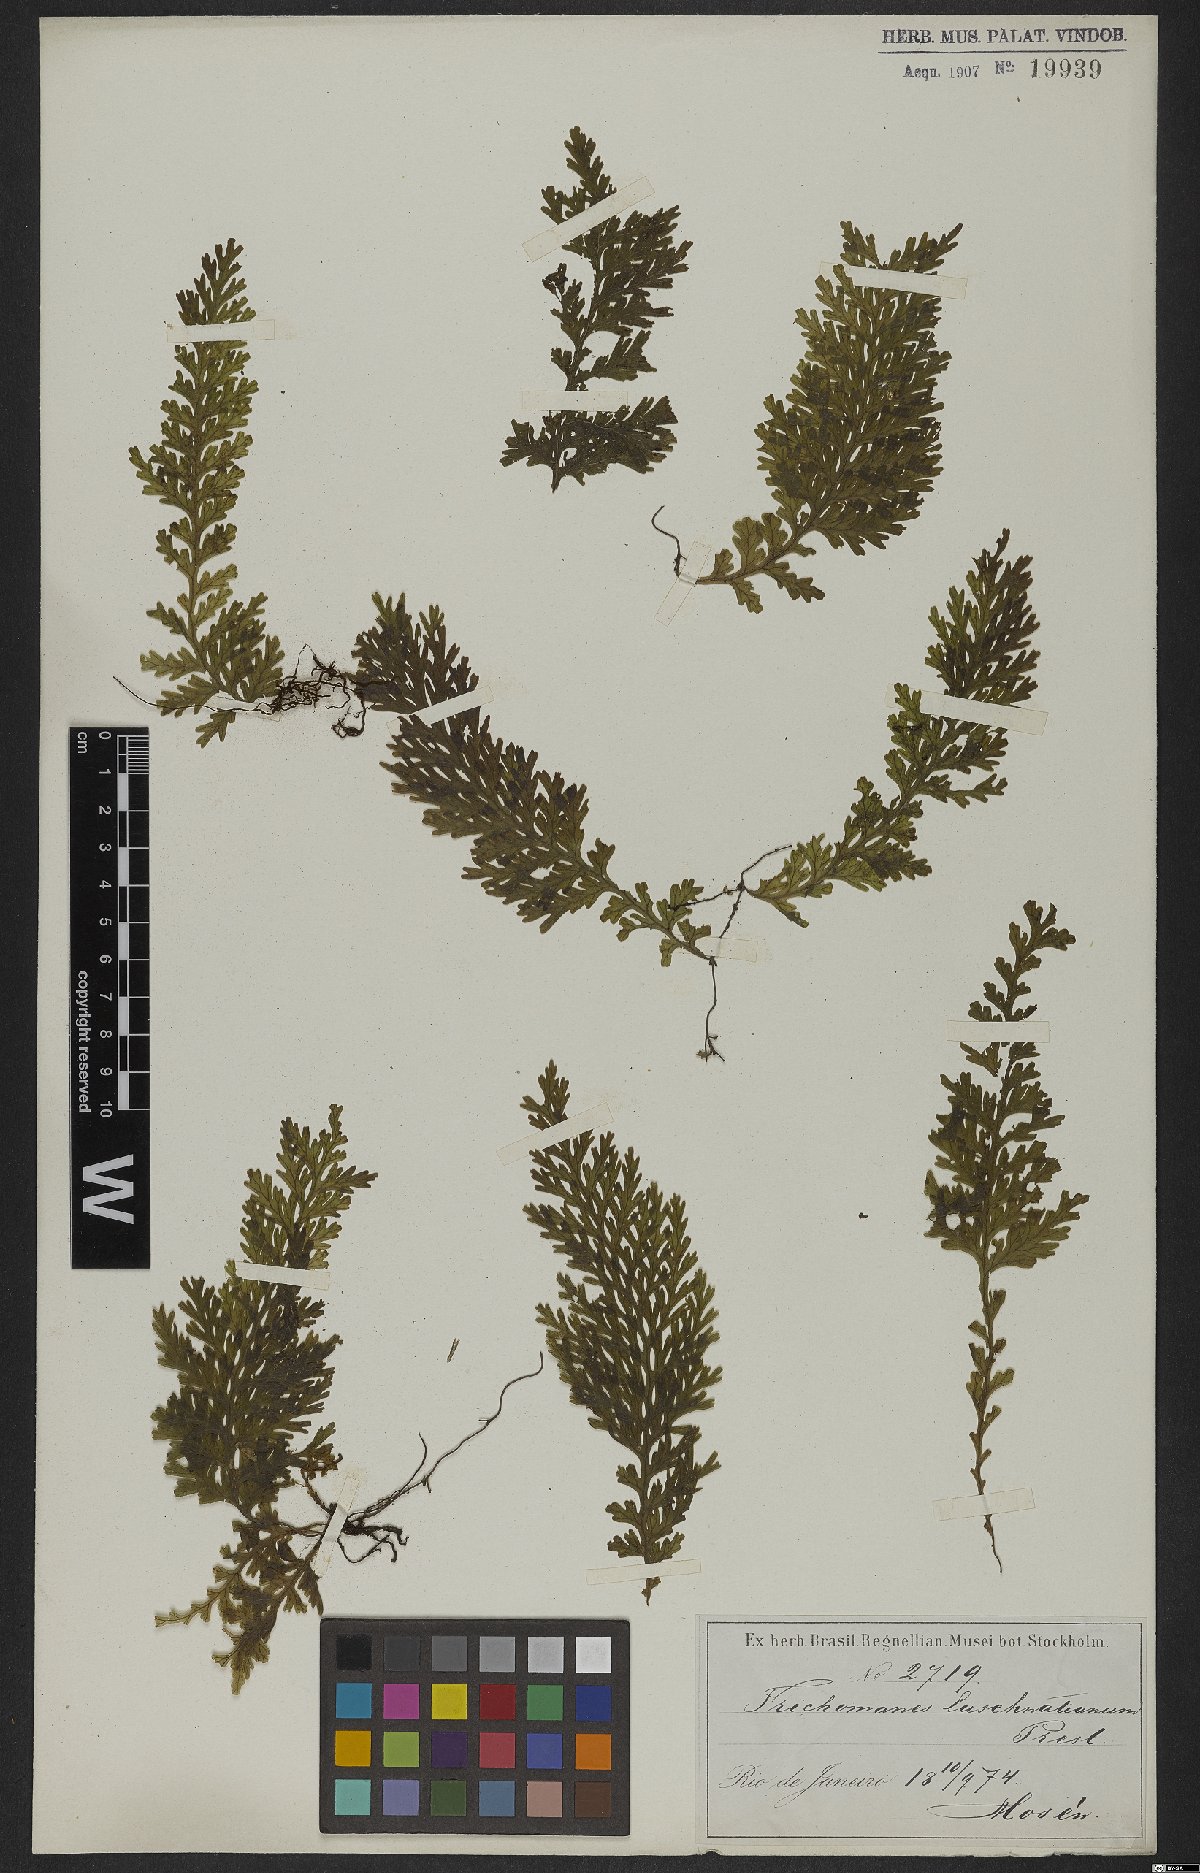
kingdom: Plantae
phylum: Tracheophyta
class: Polypodiopsida
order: Hymenophyllales
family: Hymenophyllaceae
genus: Vandenboschia
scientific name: Vandenboschia rupestris
